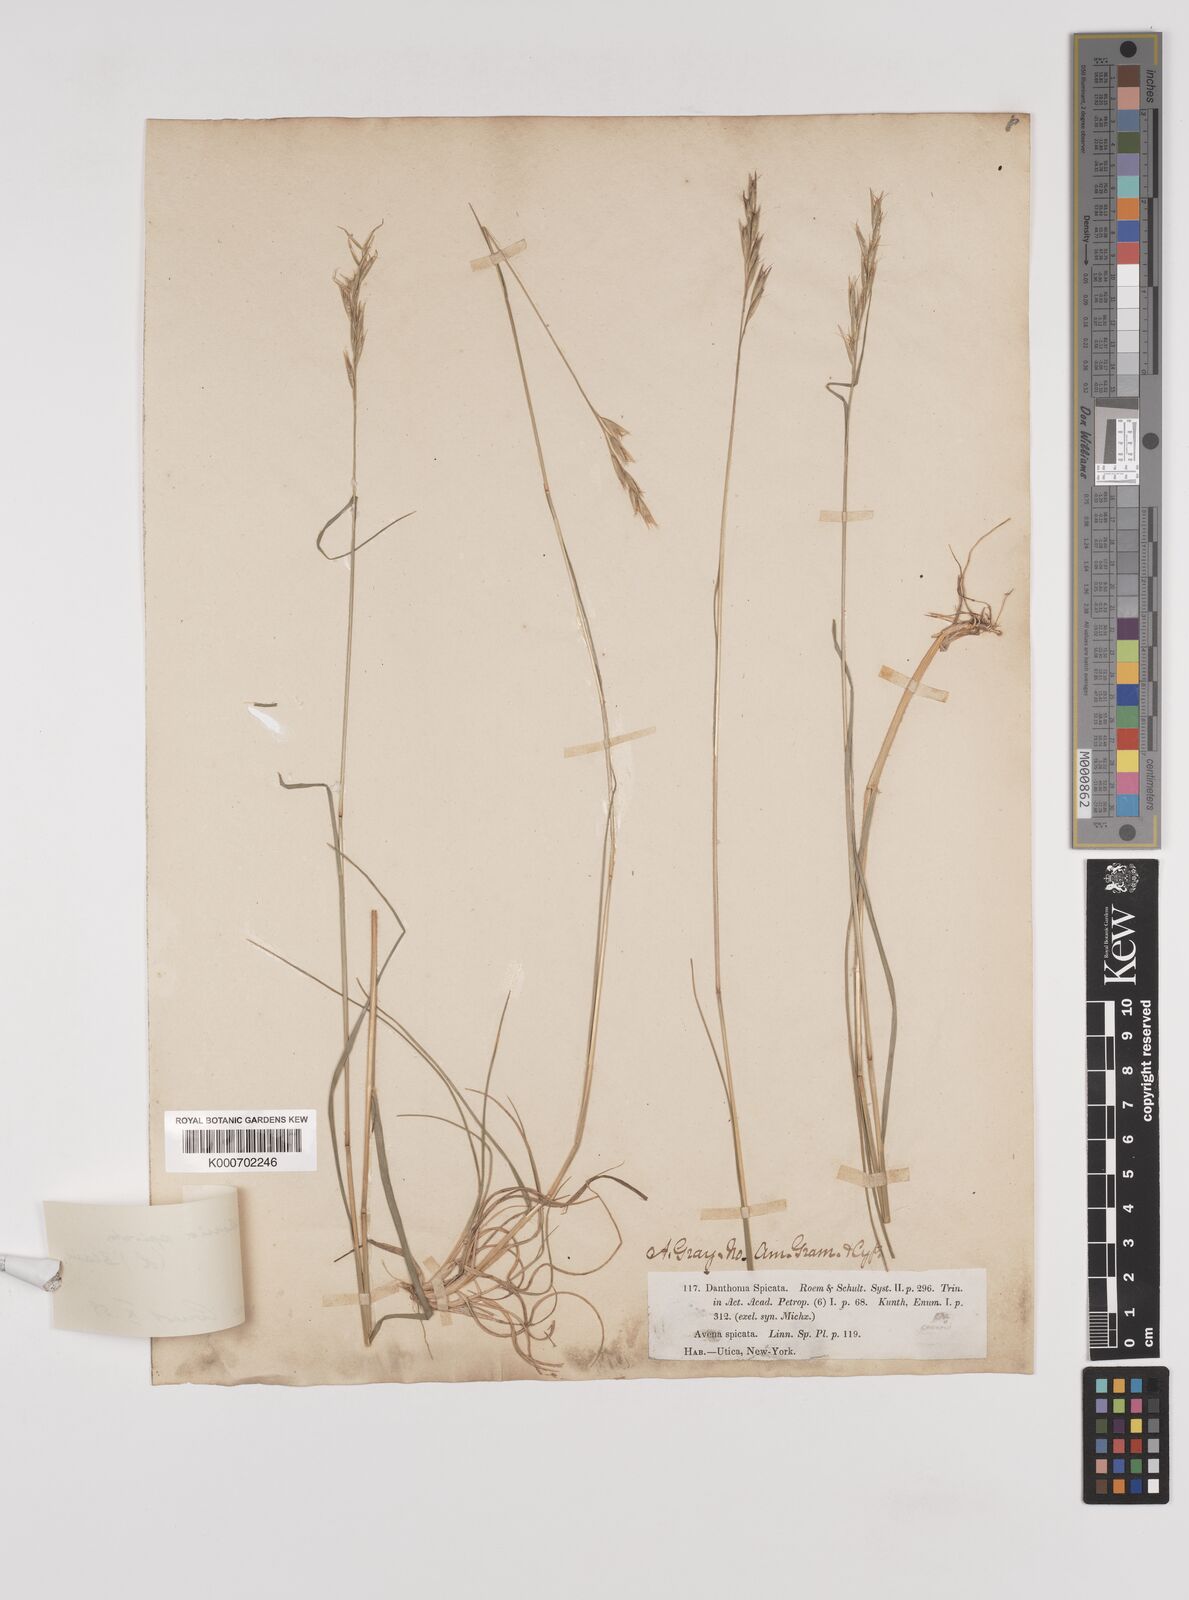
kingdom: Plantae
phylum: Tracheophyta
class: Liliopsida
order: Poales
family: Poaceae
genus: Danthonia
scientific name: Danthonia spicata
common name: Common wild oatgrass
